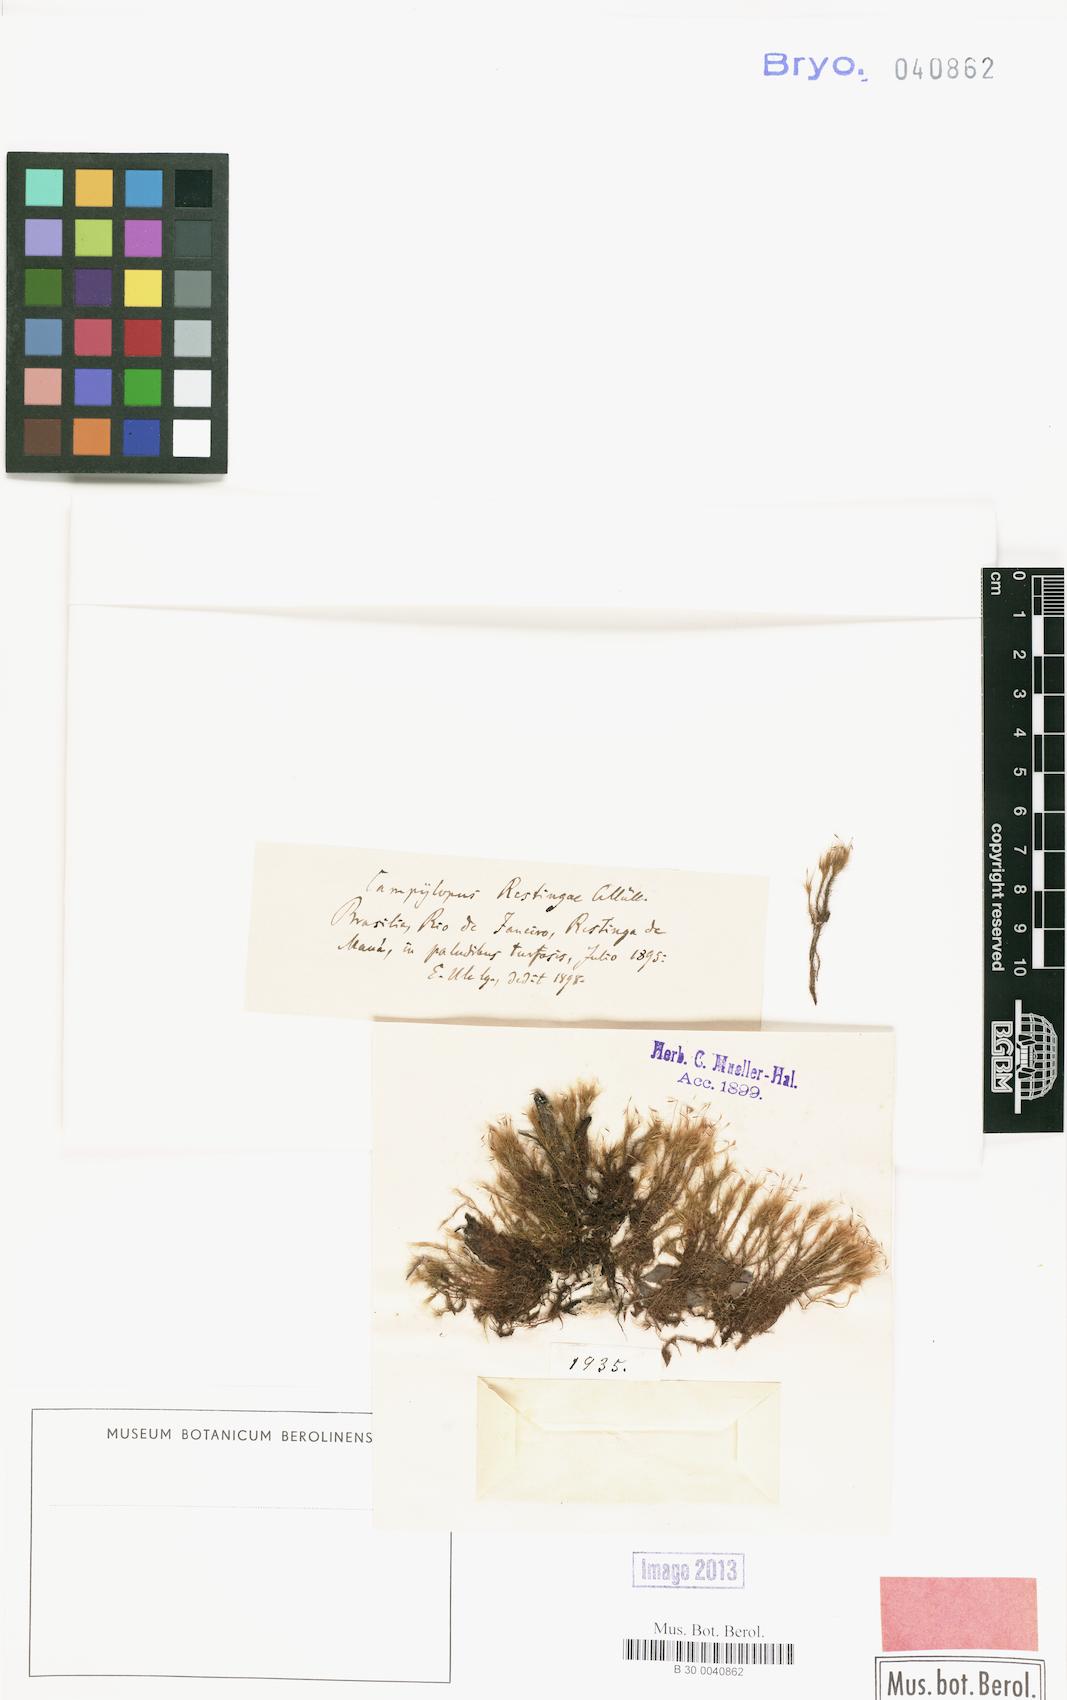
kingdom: Plantae
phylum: Bryophyta
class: Bryopsida
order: Dicranales
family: Leucobryaceae
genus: Campylopus
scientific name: Campylopus occultus
